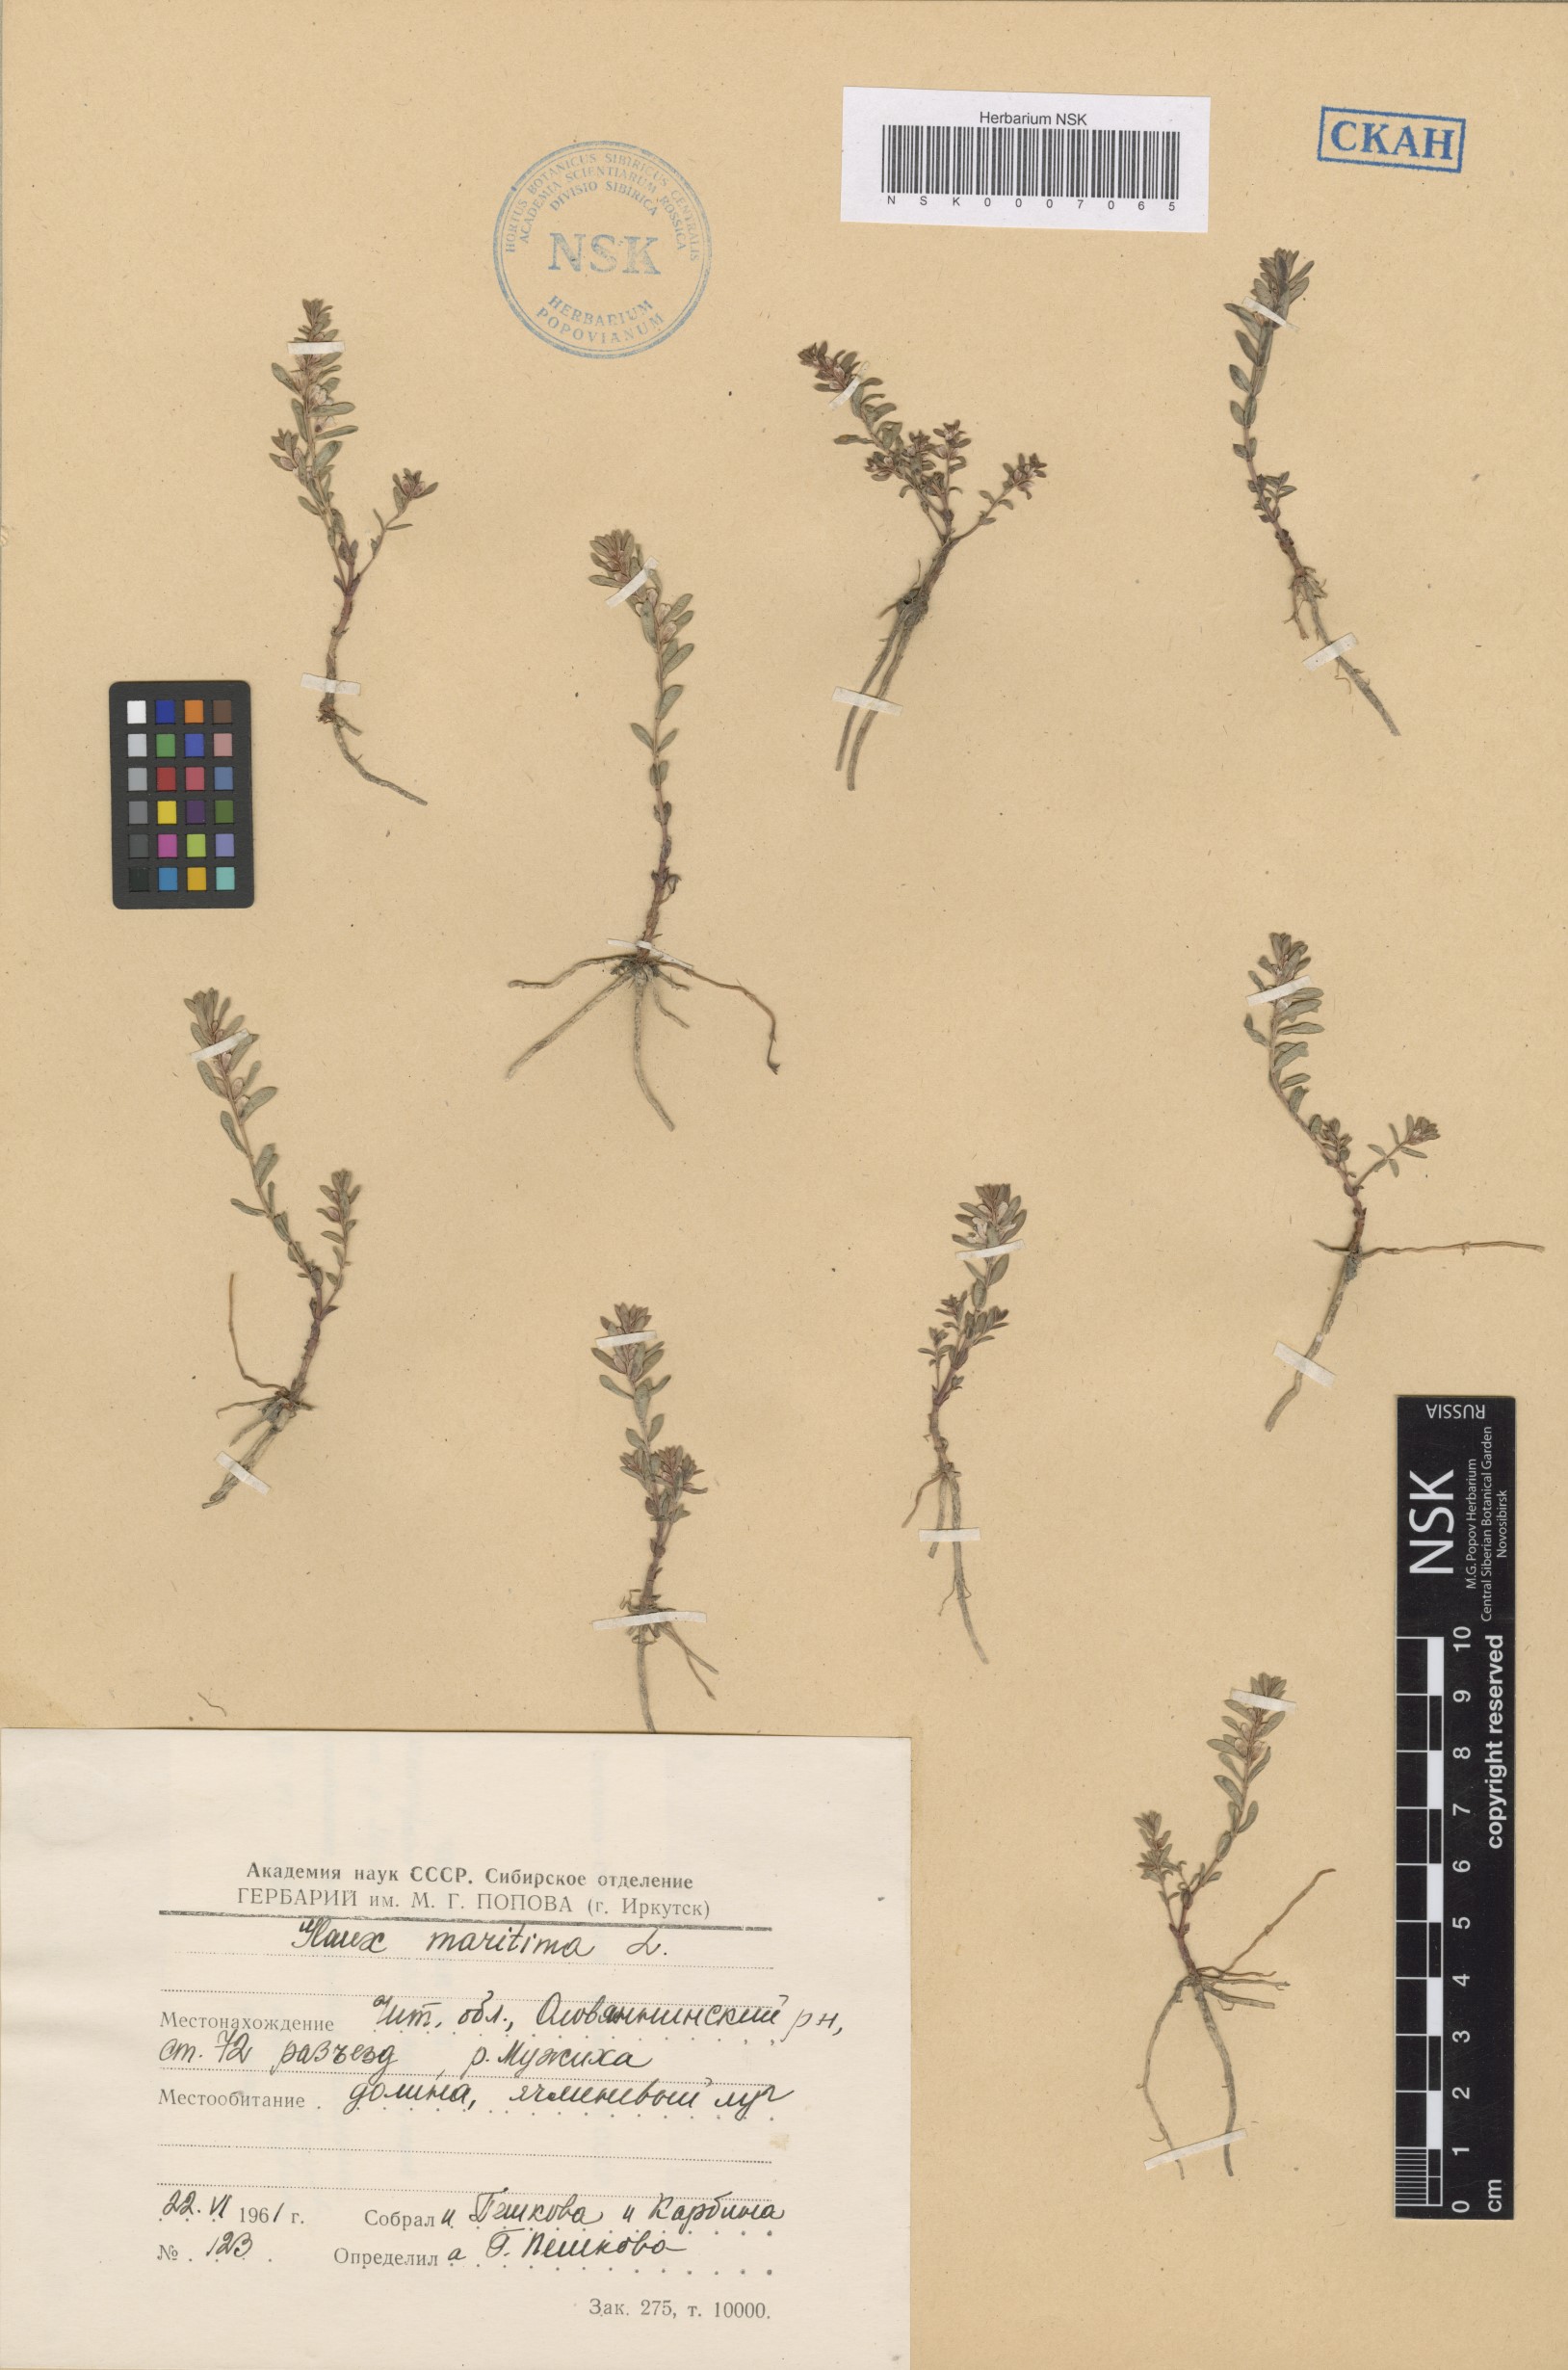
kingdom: Plantae
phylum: Tracheophyta
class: Magnoliopsida
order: Ericales
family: Primulaceae
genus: Lysimachia
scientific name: Lysimachia maritima
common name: Sea milkwort
